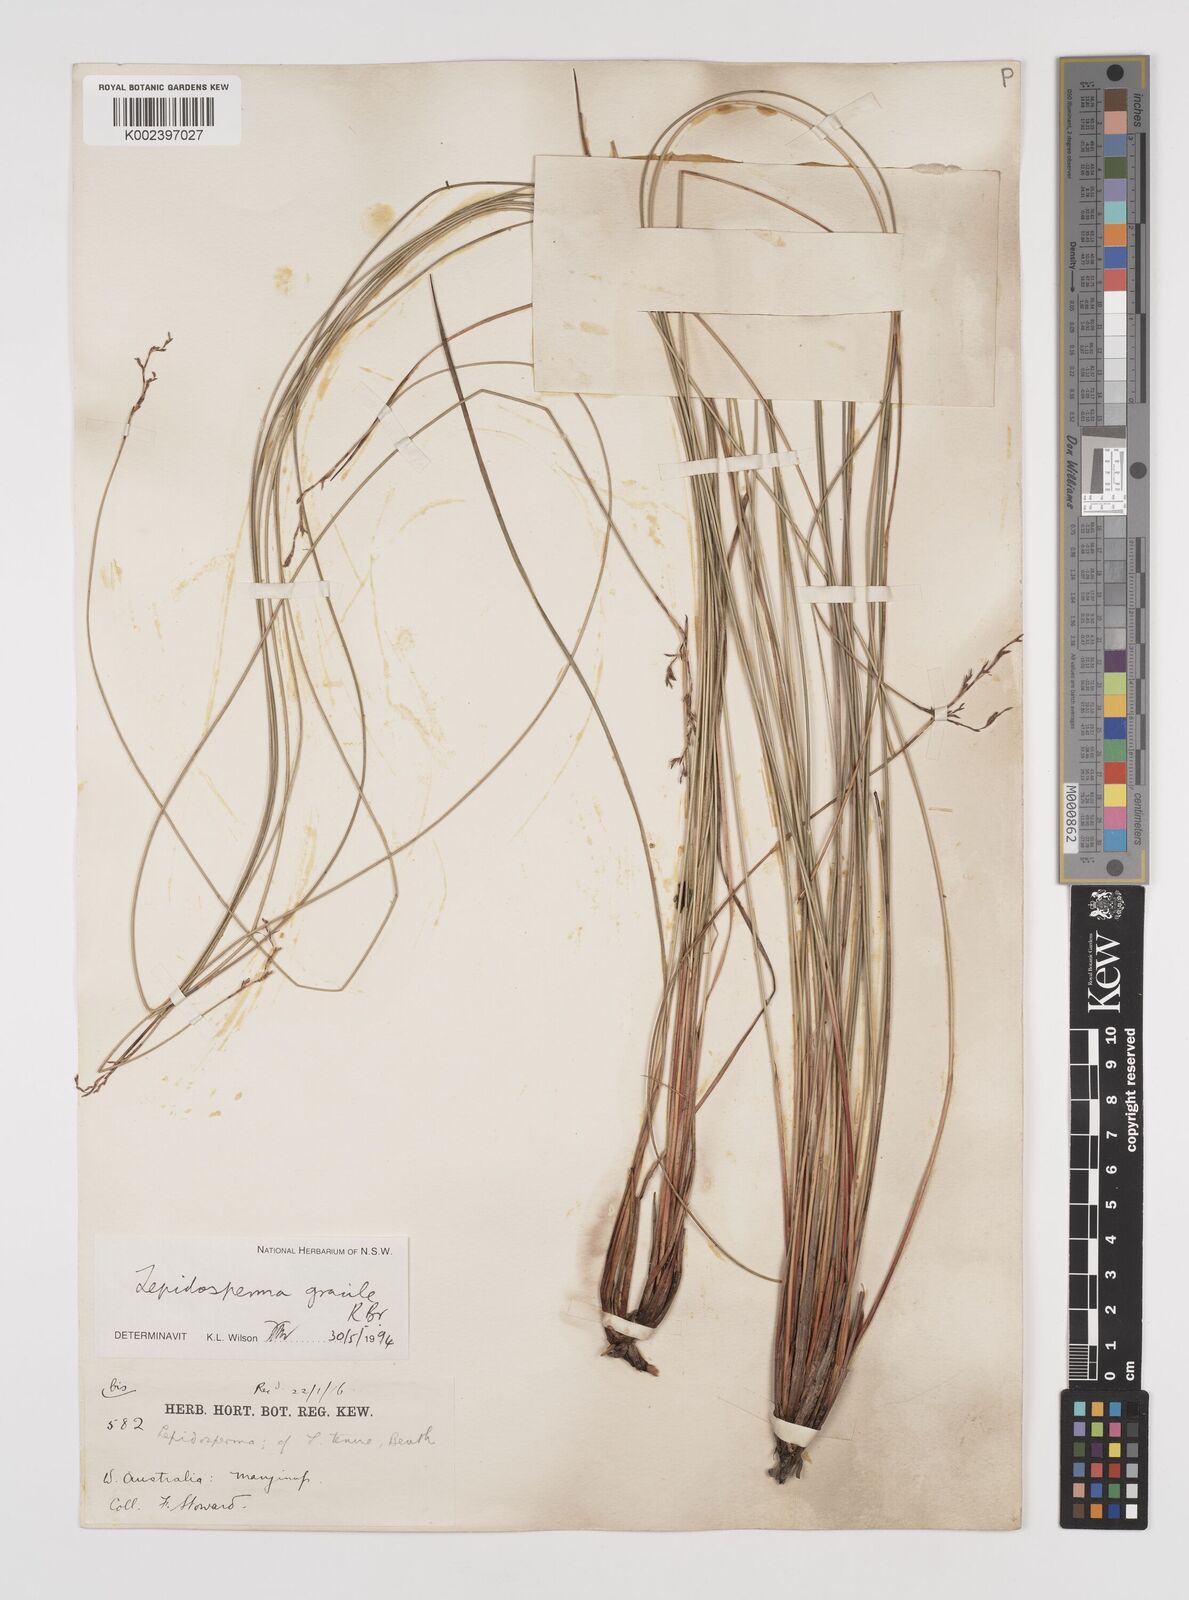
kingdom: Plantae
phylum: Tracheophyta
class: Liliopsida
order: Poales
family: Cyperaceae
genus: Lepidosperma
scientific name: Lepidosperma gracile
